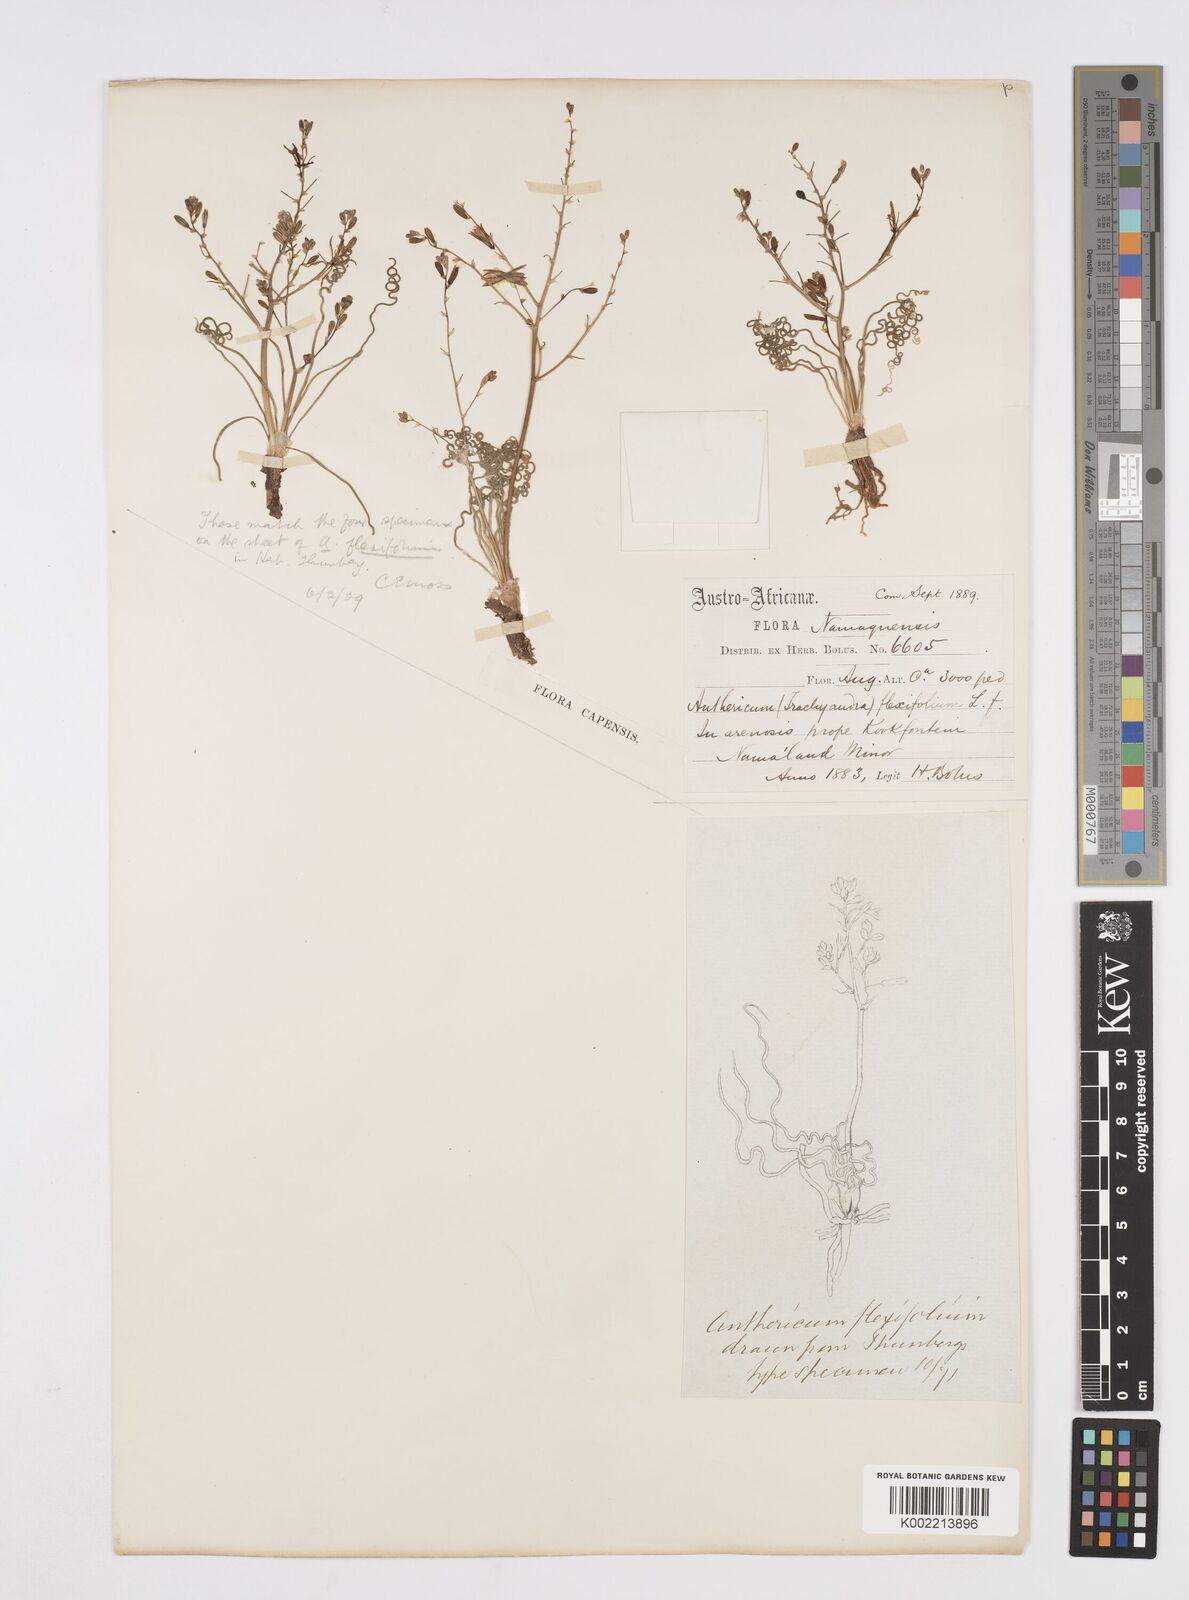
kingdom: Plantae
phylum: Tracheophyta
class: Liliopsida
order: Asparagales
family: Asphodelaceae
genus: Trachyandra
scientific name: Trachyandra flexifolia
